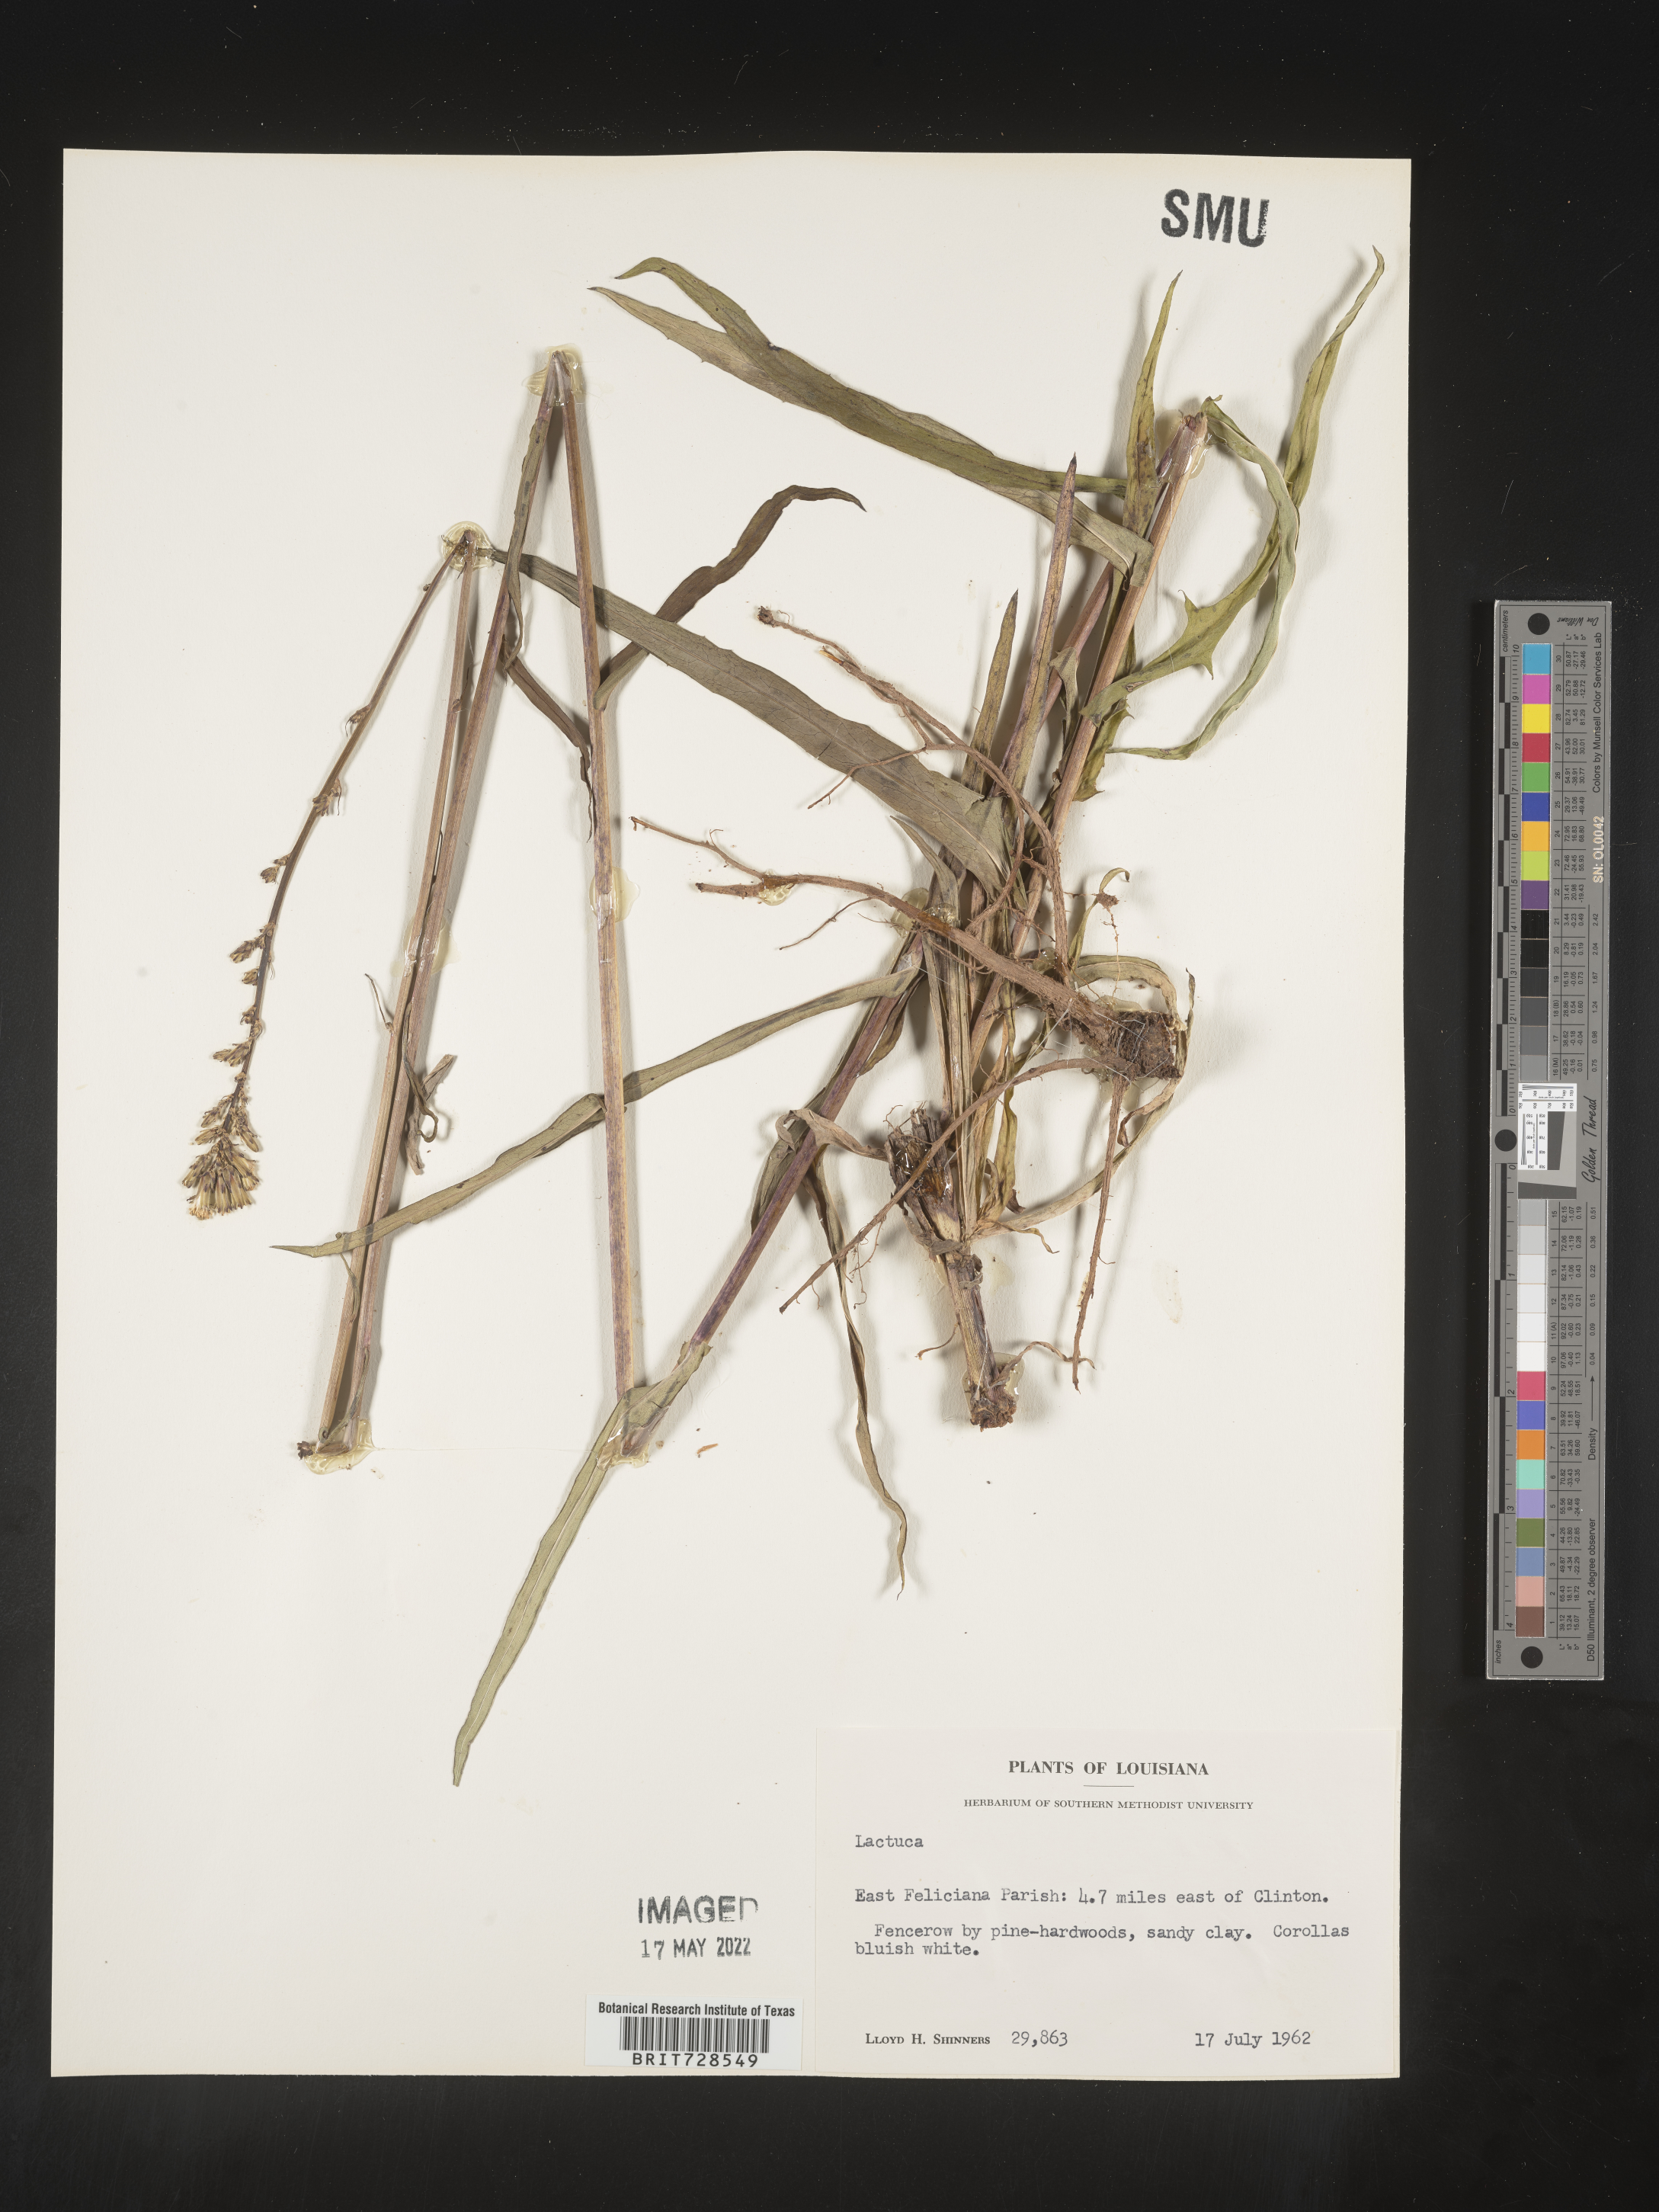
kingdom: Plantae
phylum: Tracheophyta
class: Magnoliopsida
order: Asterales
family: Asteraceae
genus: Lactuca
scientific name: Lactuca
